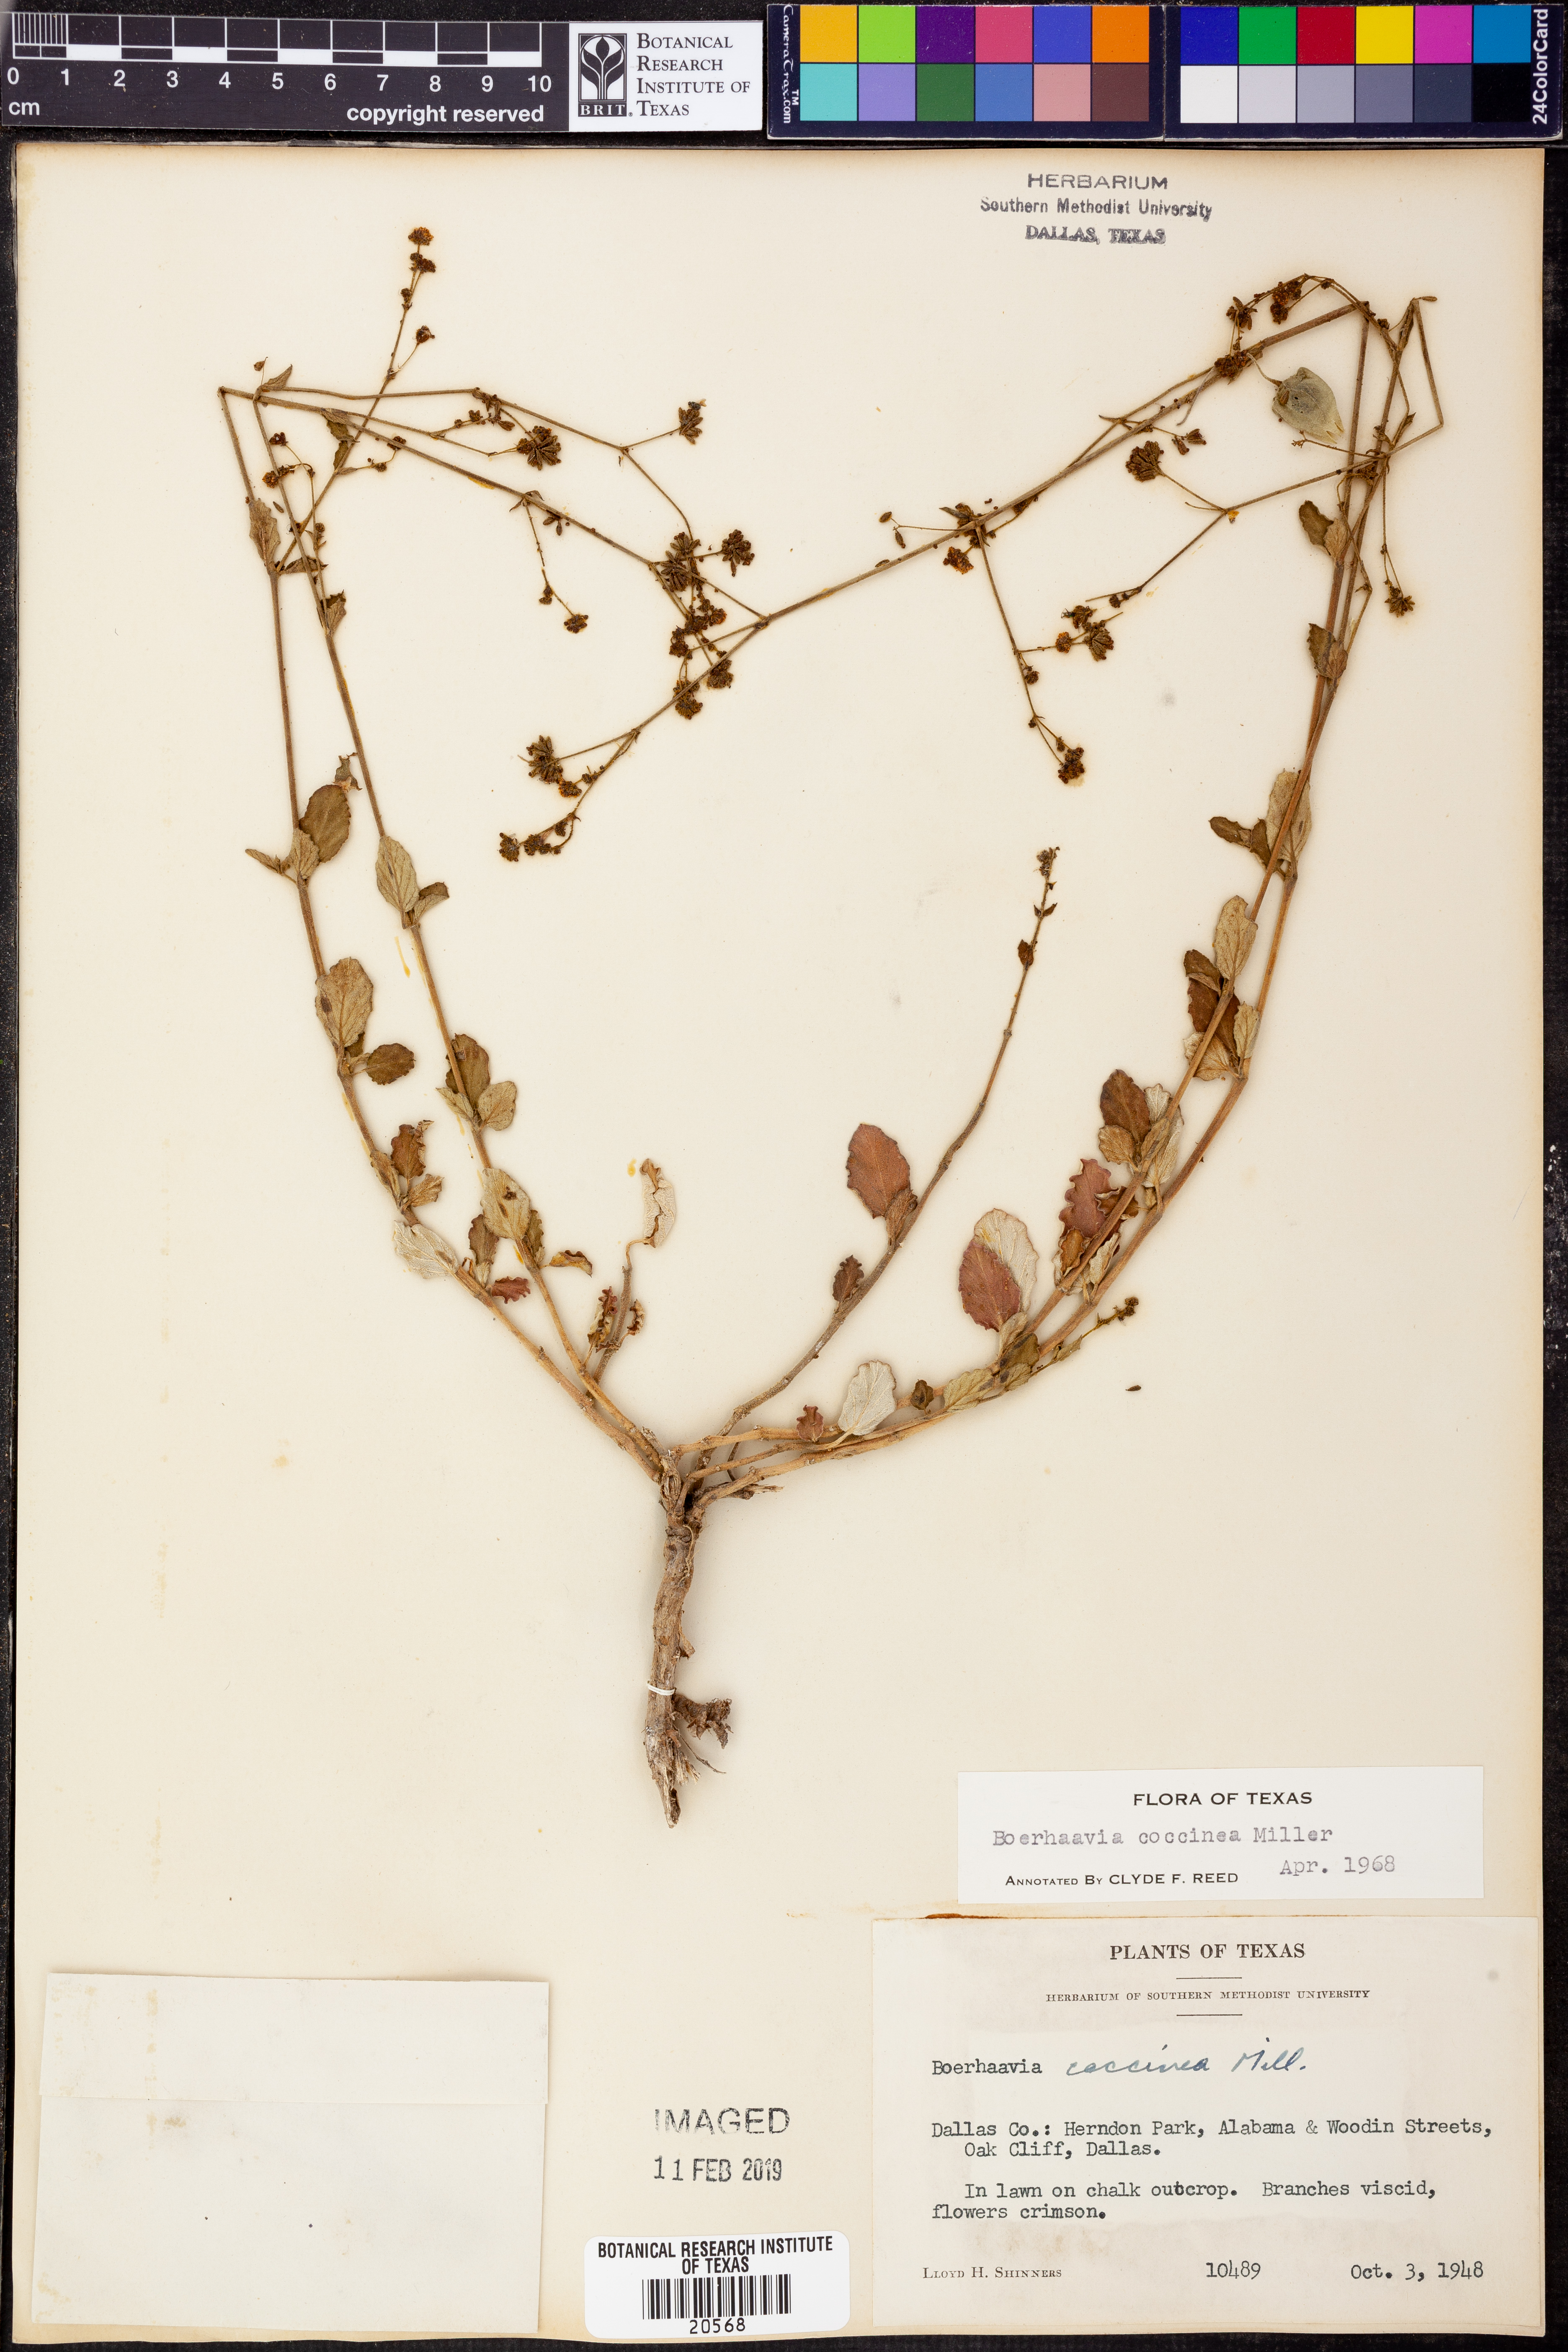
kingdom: Plantae
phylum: Tracheophyta
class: Magnoliopsida
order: Caryophyllales
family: Nyctaginaceae
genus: Boerhavia
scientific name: Boerhavia coccinea
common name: Scarlet spiderling
